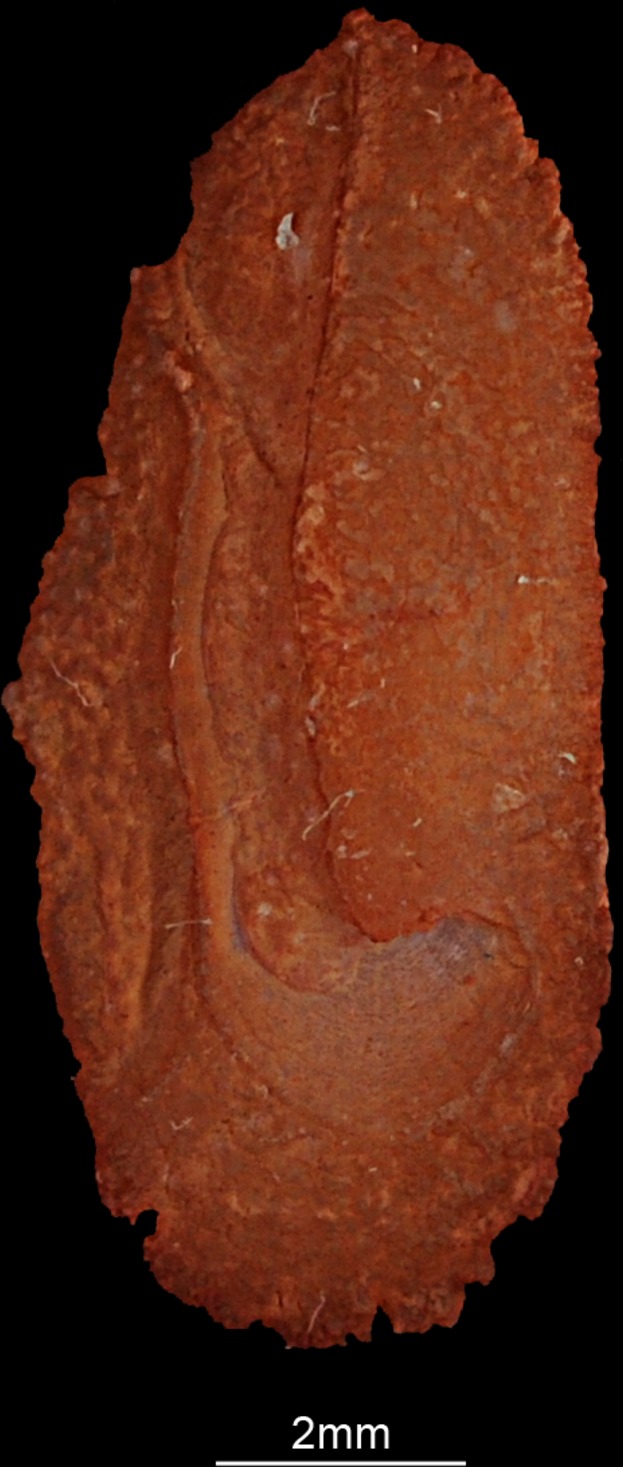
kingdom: Animalia
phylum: Chordata
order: Perciformes
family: Polynemidae
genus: Eleutheronema
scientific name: Eleutheronema tetradactylum
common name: Fourfinger threadfin
